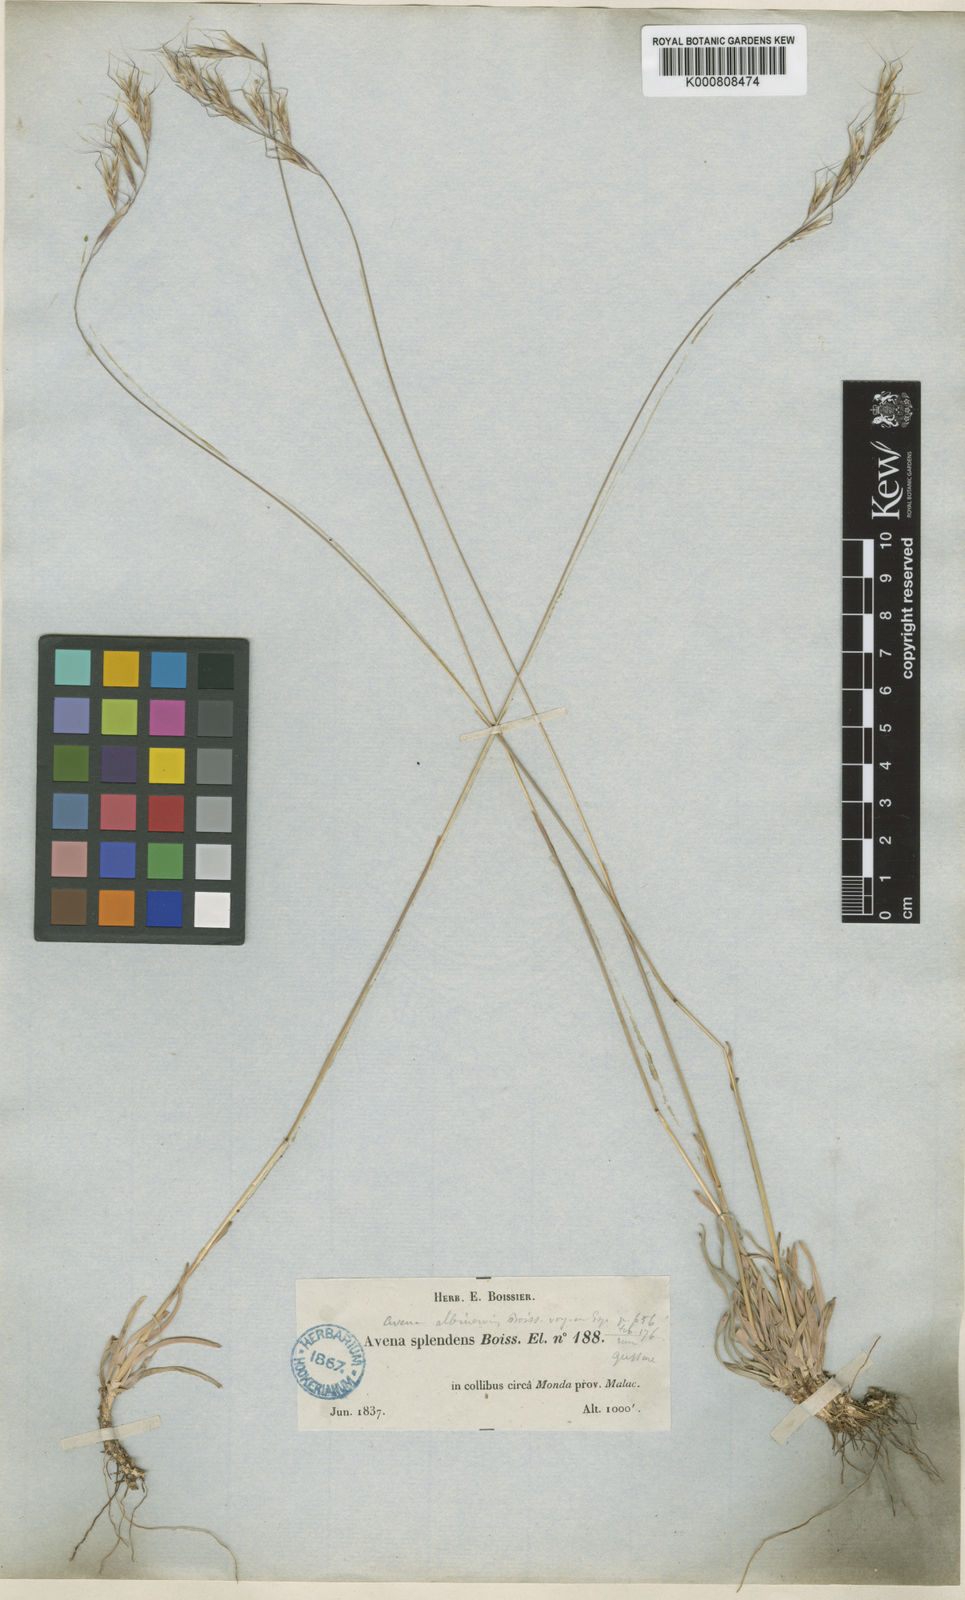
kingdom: Plantae
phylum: Tracheophyta
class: Liliopsida
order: Poales
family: Poaceae
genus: Helictochloa
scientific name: Helictochloa albinervis
